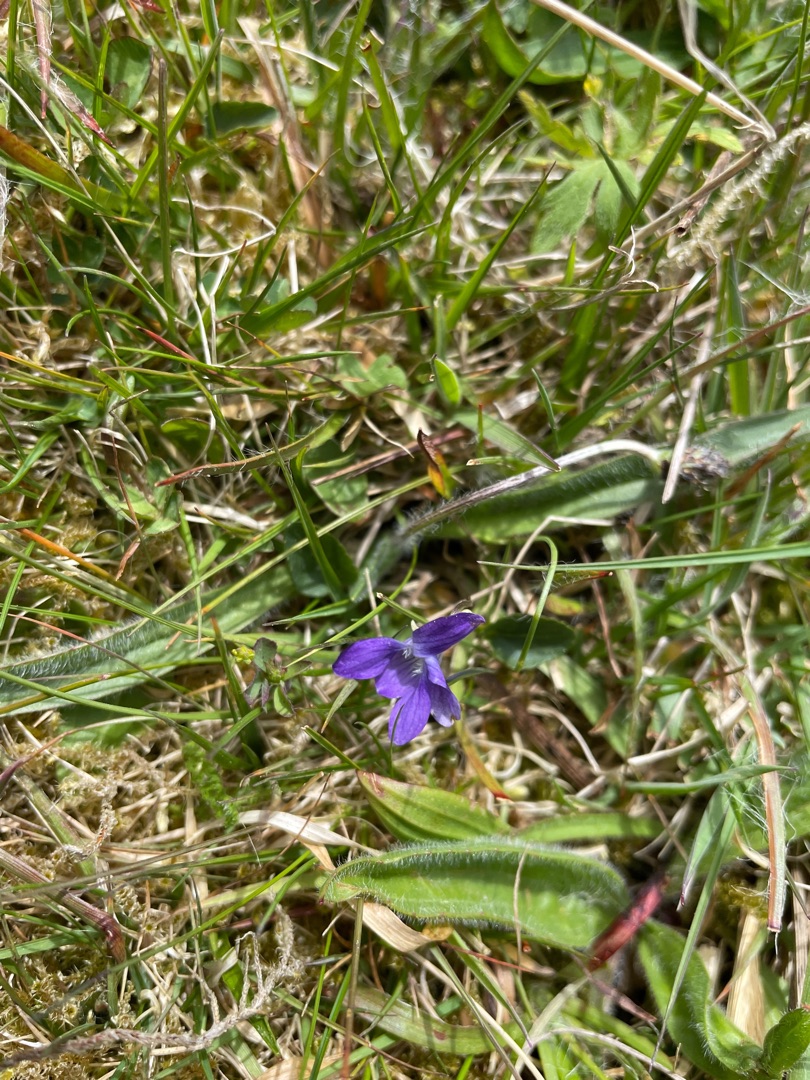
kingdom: Plantae
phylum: Tracheophyta
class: Magnoliopsida
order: Malpighiales
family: Violaceae
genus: Viola
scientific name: Viola canina
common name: Hunde-viol
